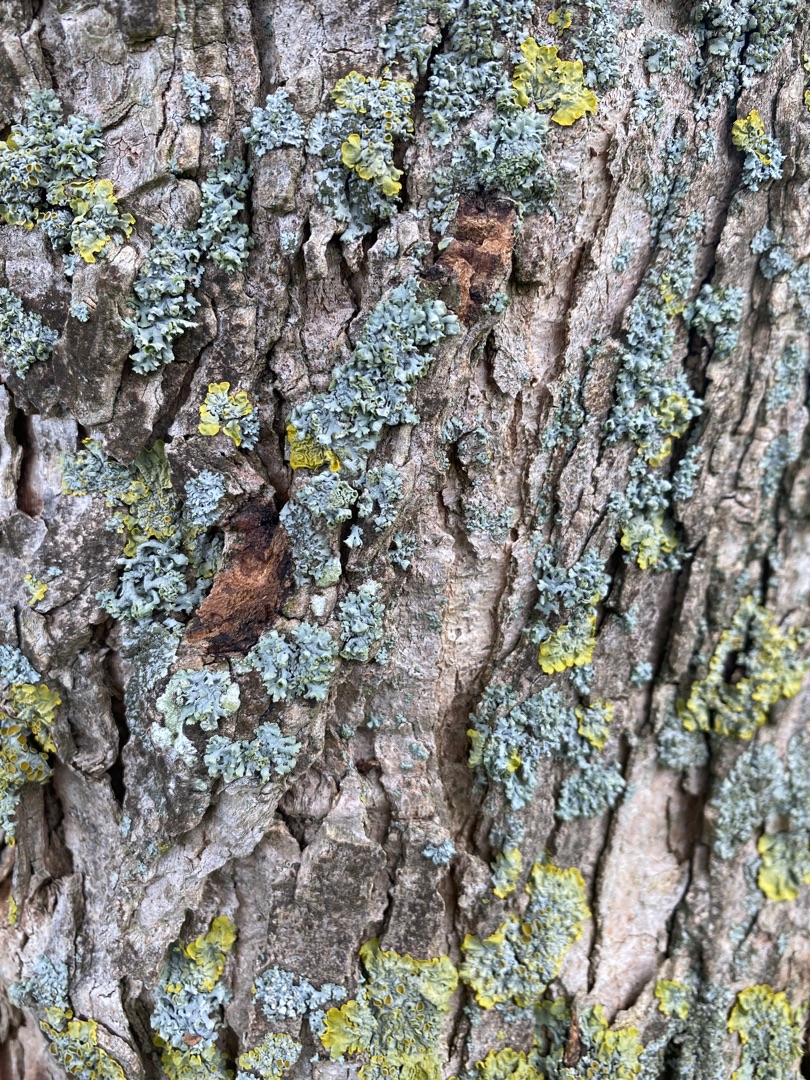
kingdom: Fungi
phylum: Ascomycota
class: Lecanoromycetes
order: Teloschistales
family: Teloschistaceae
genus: Xanthoria
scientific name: Xanthoria parietina
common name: Almindelig væggelav
